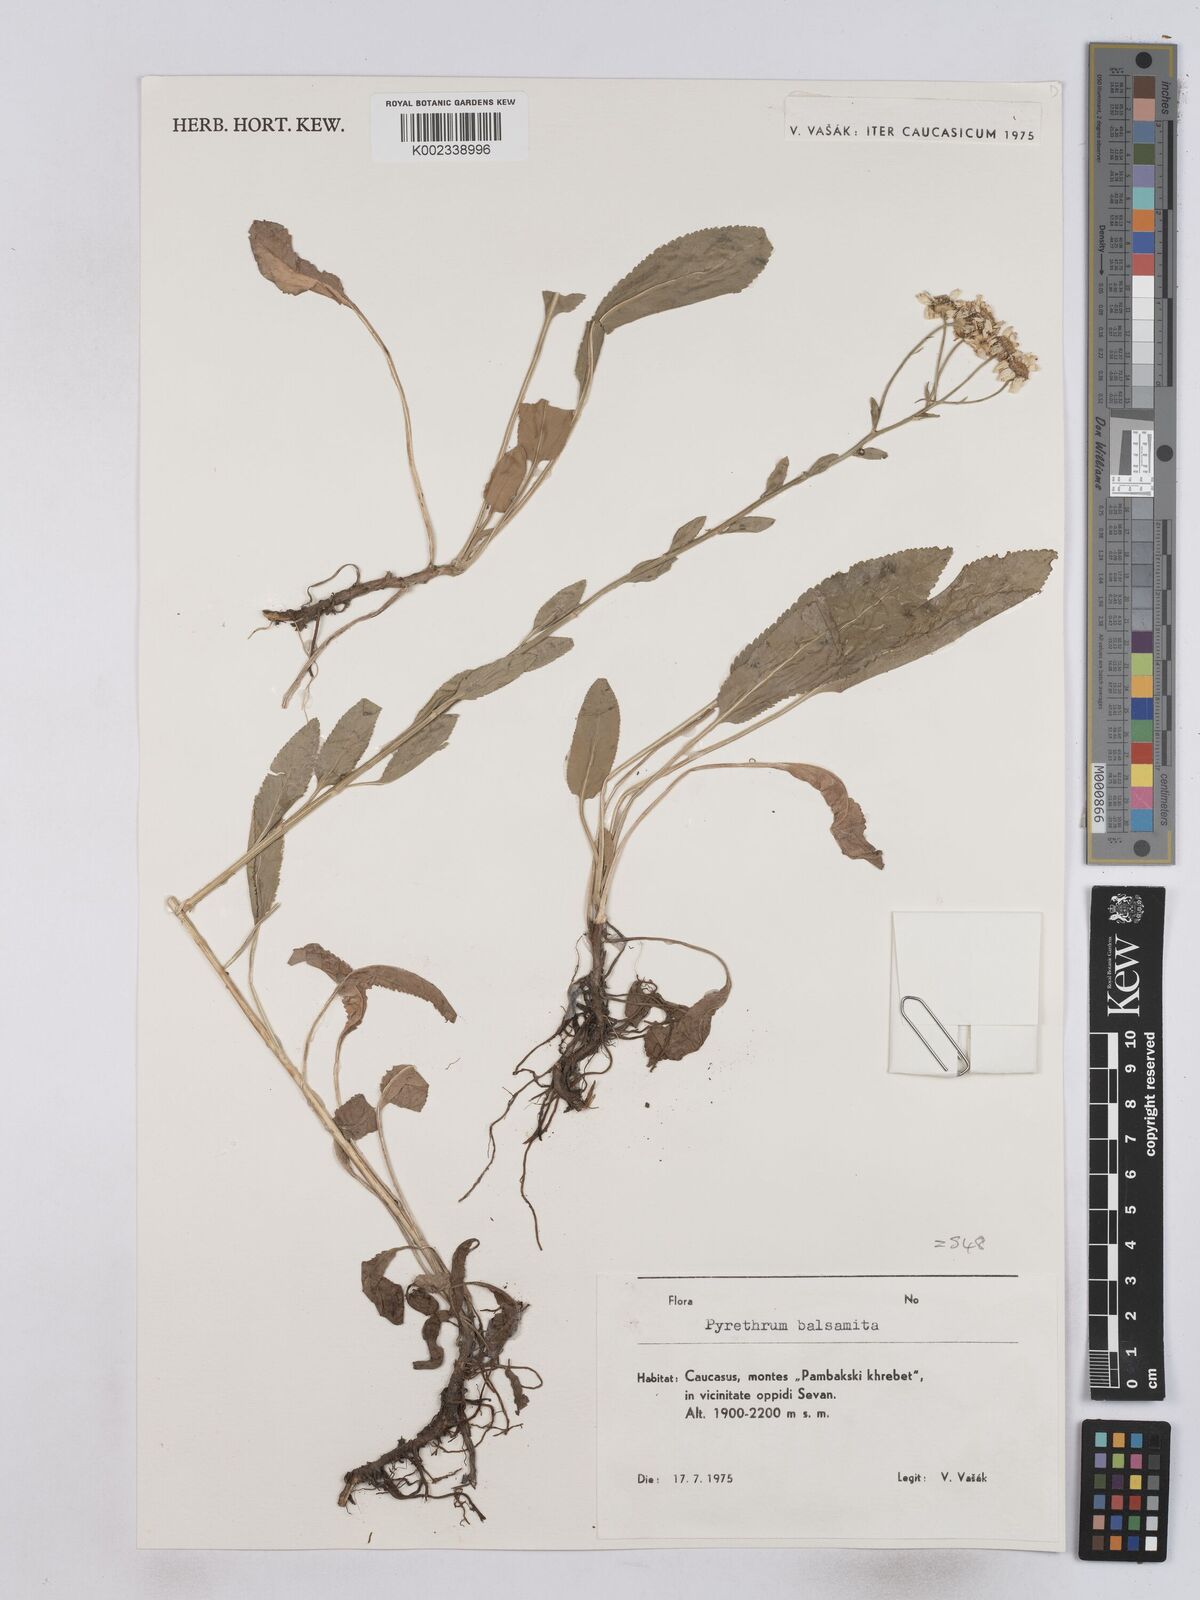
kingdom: Plantae
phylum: Tracheophyta
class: Magnoliopsida
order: Asterales
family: Asteraceae
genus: Tanacetum
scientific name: Tanacetum balsamita
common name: Costmary
